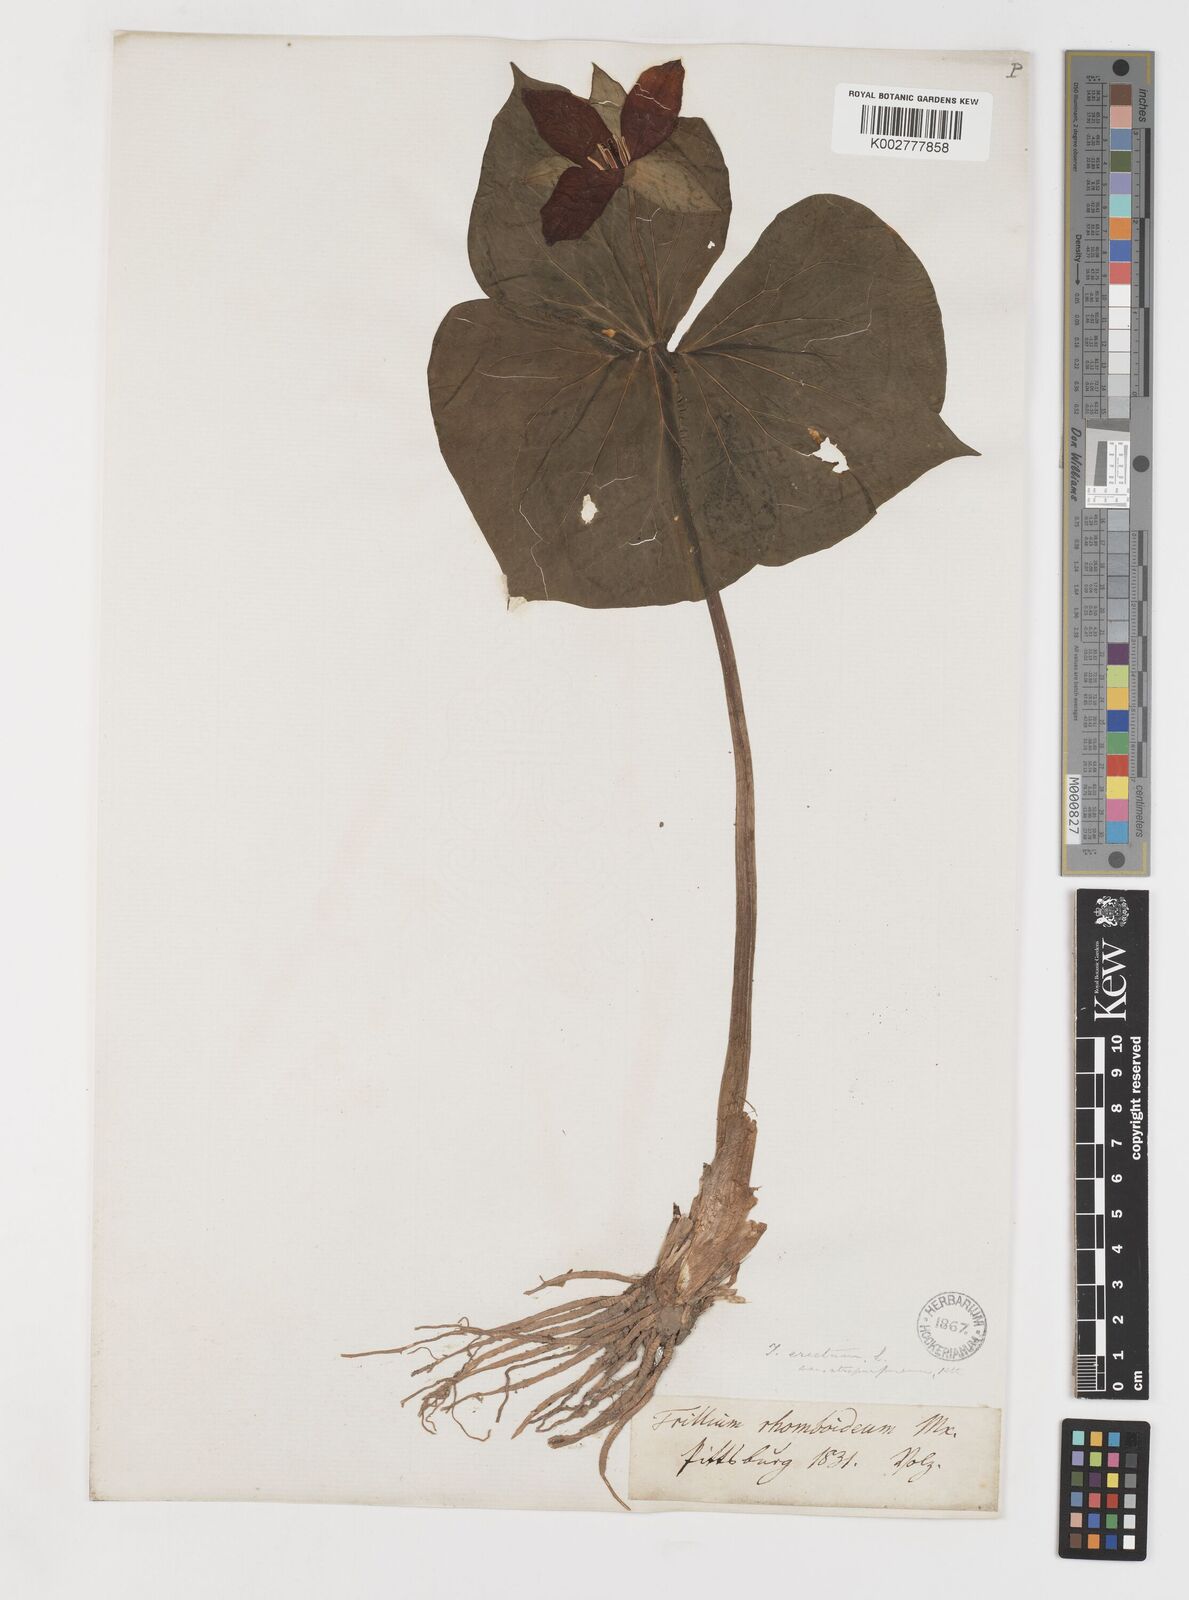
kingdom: Plantae
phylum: Tracheophyta
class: Liliopsida
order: Liliales
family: Melanthiaceae
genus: Trillium
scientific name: Trillium erectum
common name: Purple trillium
